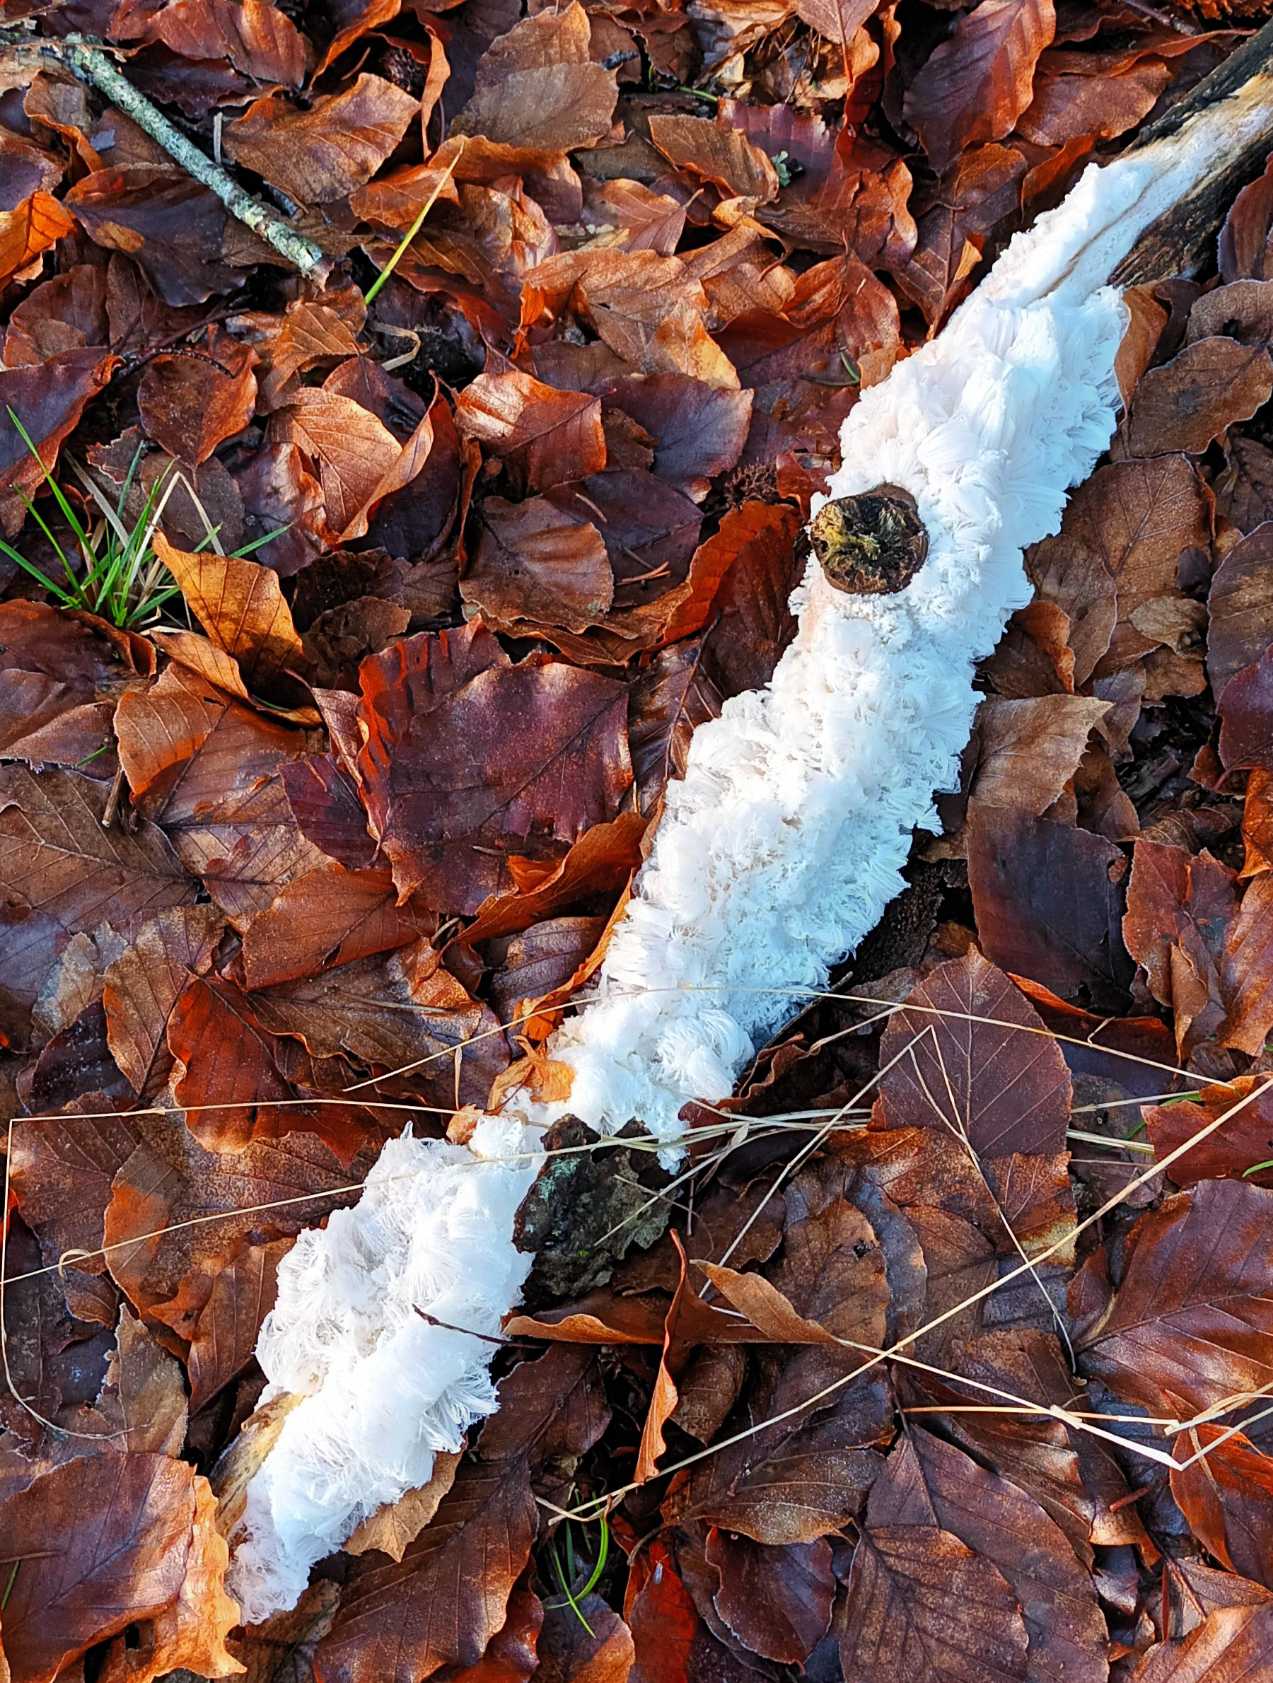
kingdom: Fungi
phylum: Basidiomycota
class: Tremellomycetes
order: Tremellales
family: Exidiaceae
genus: Exidiopsis
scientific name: Exidiopsis effusa
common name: Smuk bævrehinde
